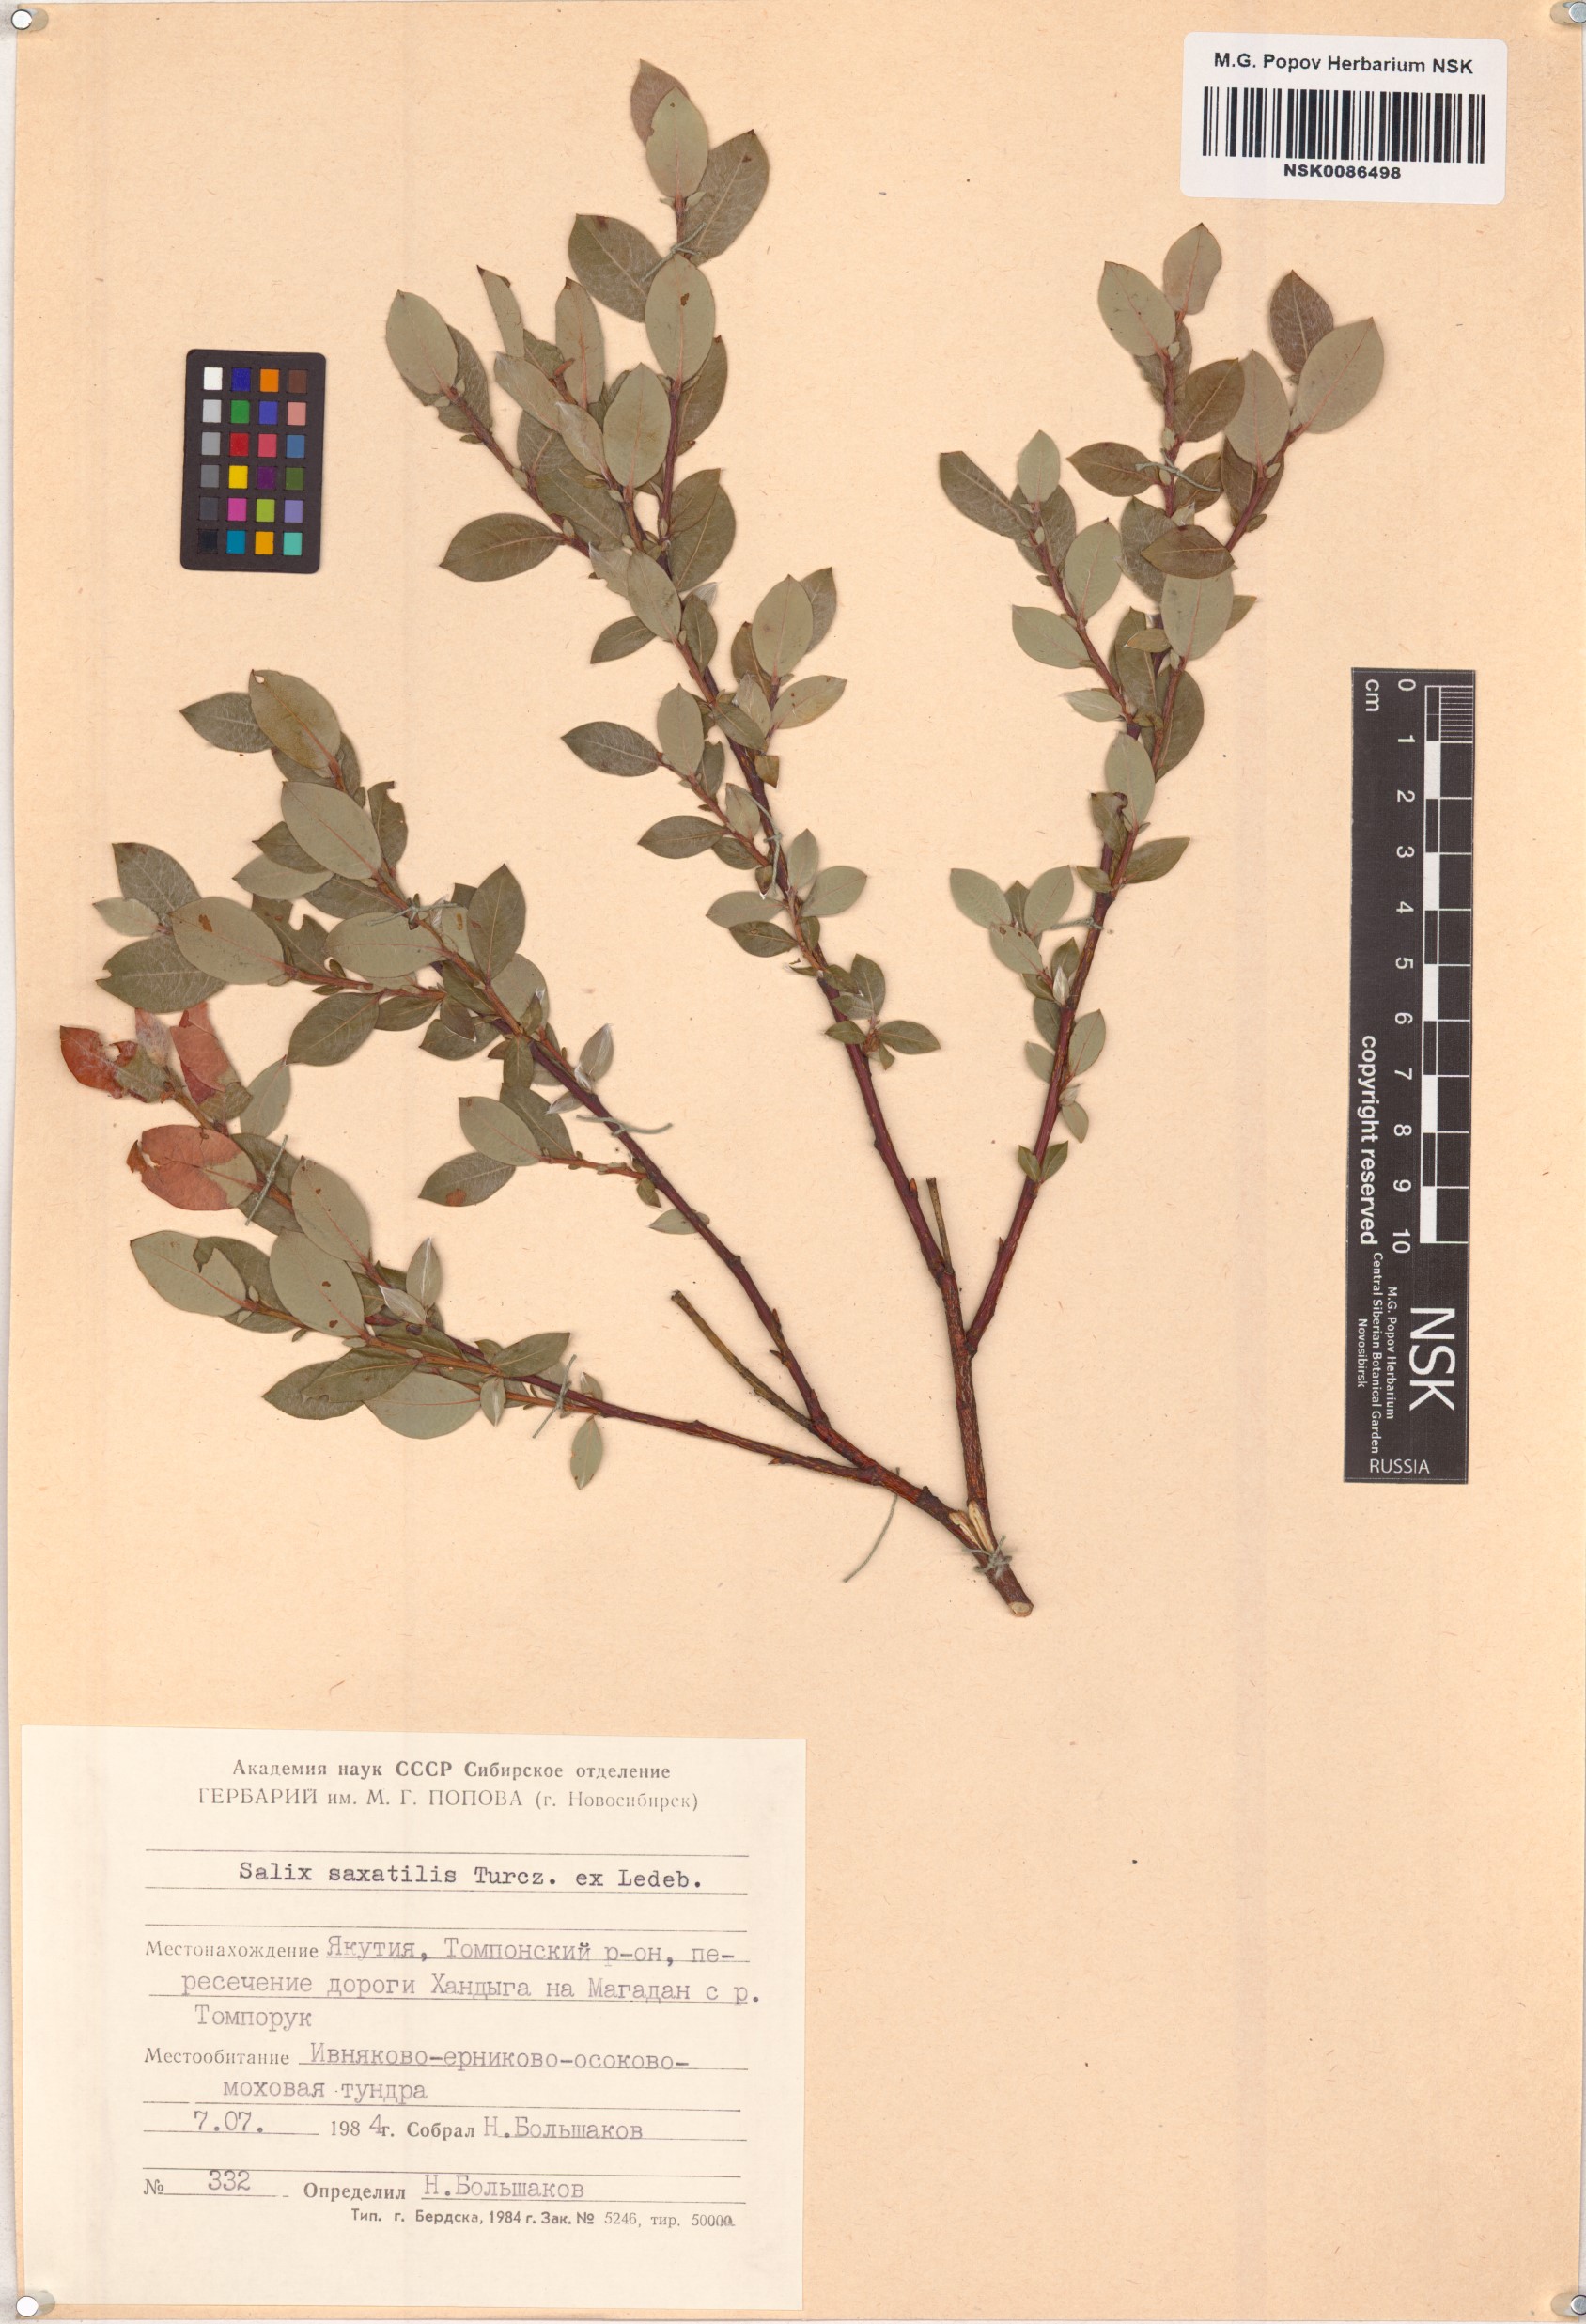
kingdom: Plantae
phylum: Tracheophyta
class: Magnoliopsida
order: Malpighiales
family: Salicaceae
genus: Salix
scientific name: Salix saxatilis
